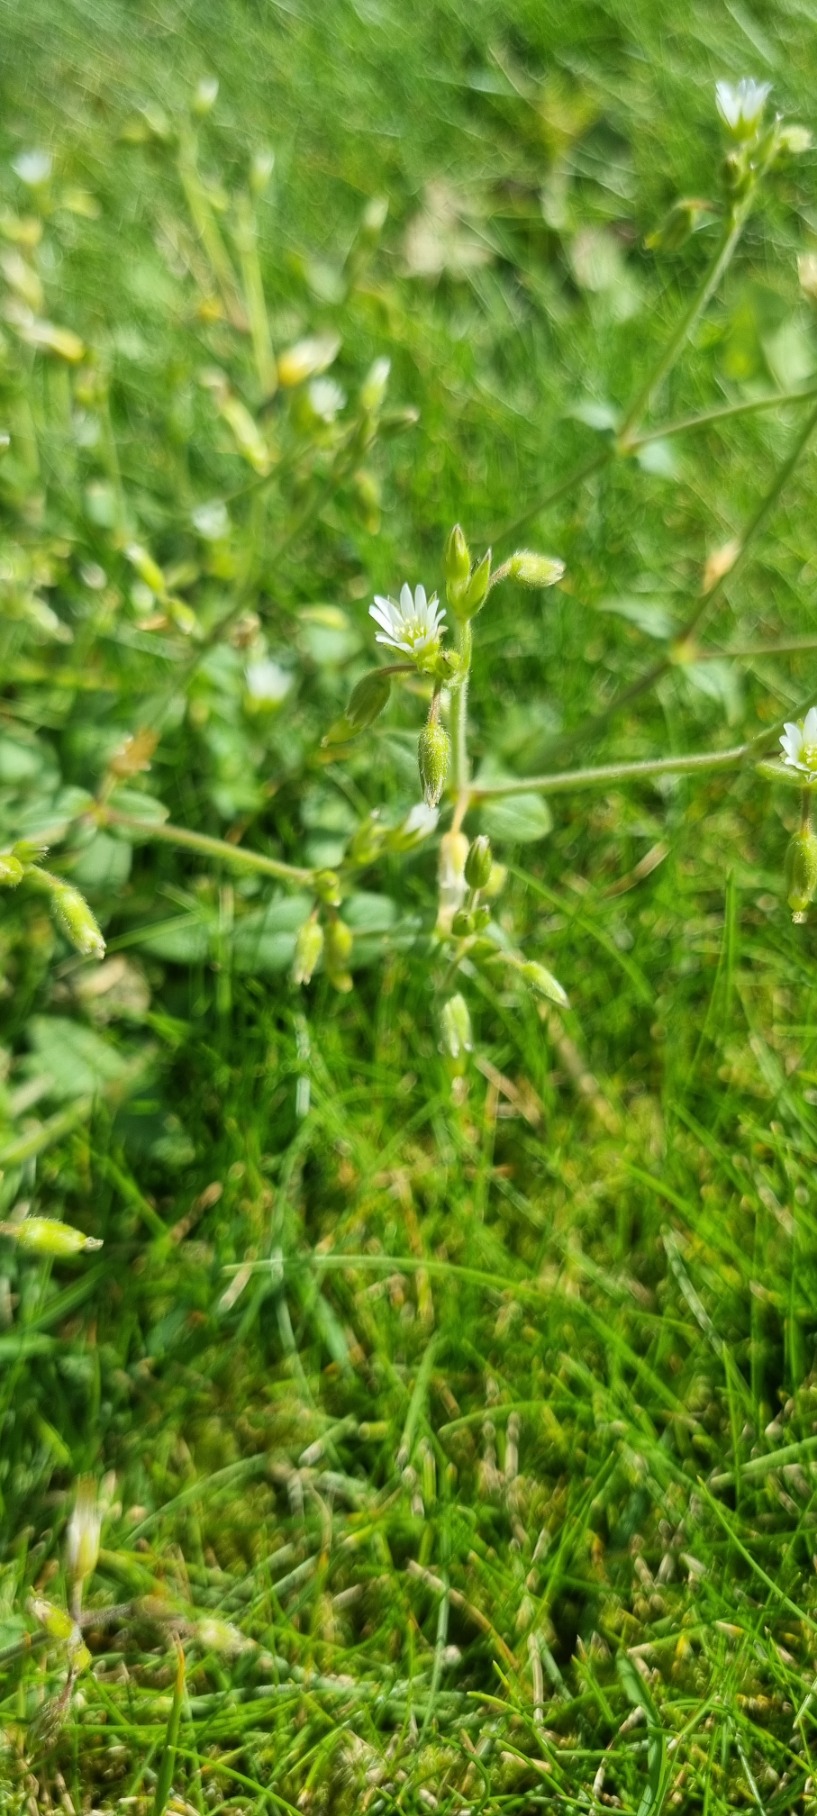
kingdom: Plantae
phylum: Tracheophyta
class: Magnoliopsida
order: Caryophyllales
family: Caryophyllaceae
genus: Cerastium
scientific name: Cerastium fontanum
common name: Almindelig hønsetarm
